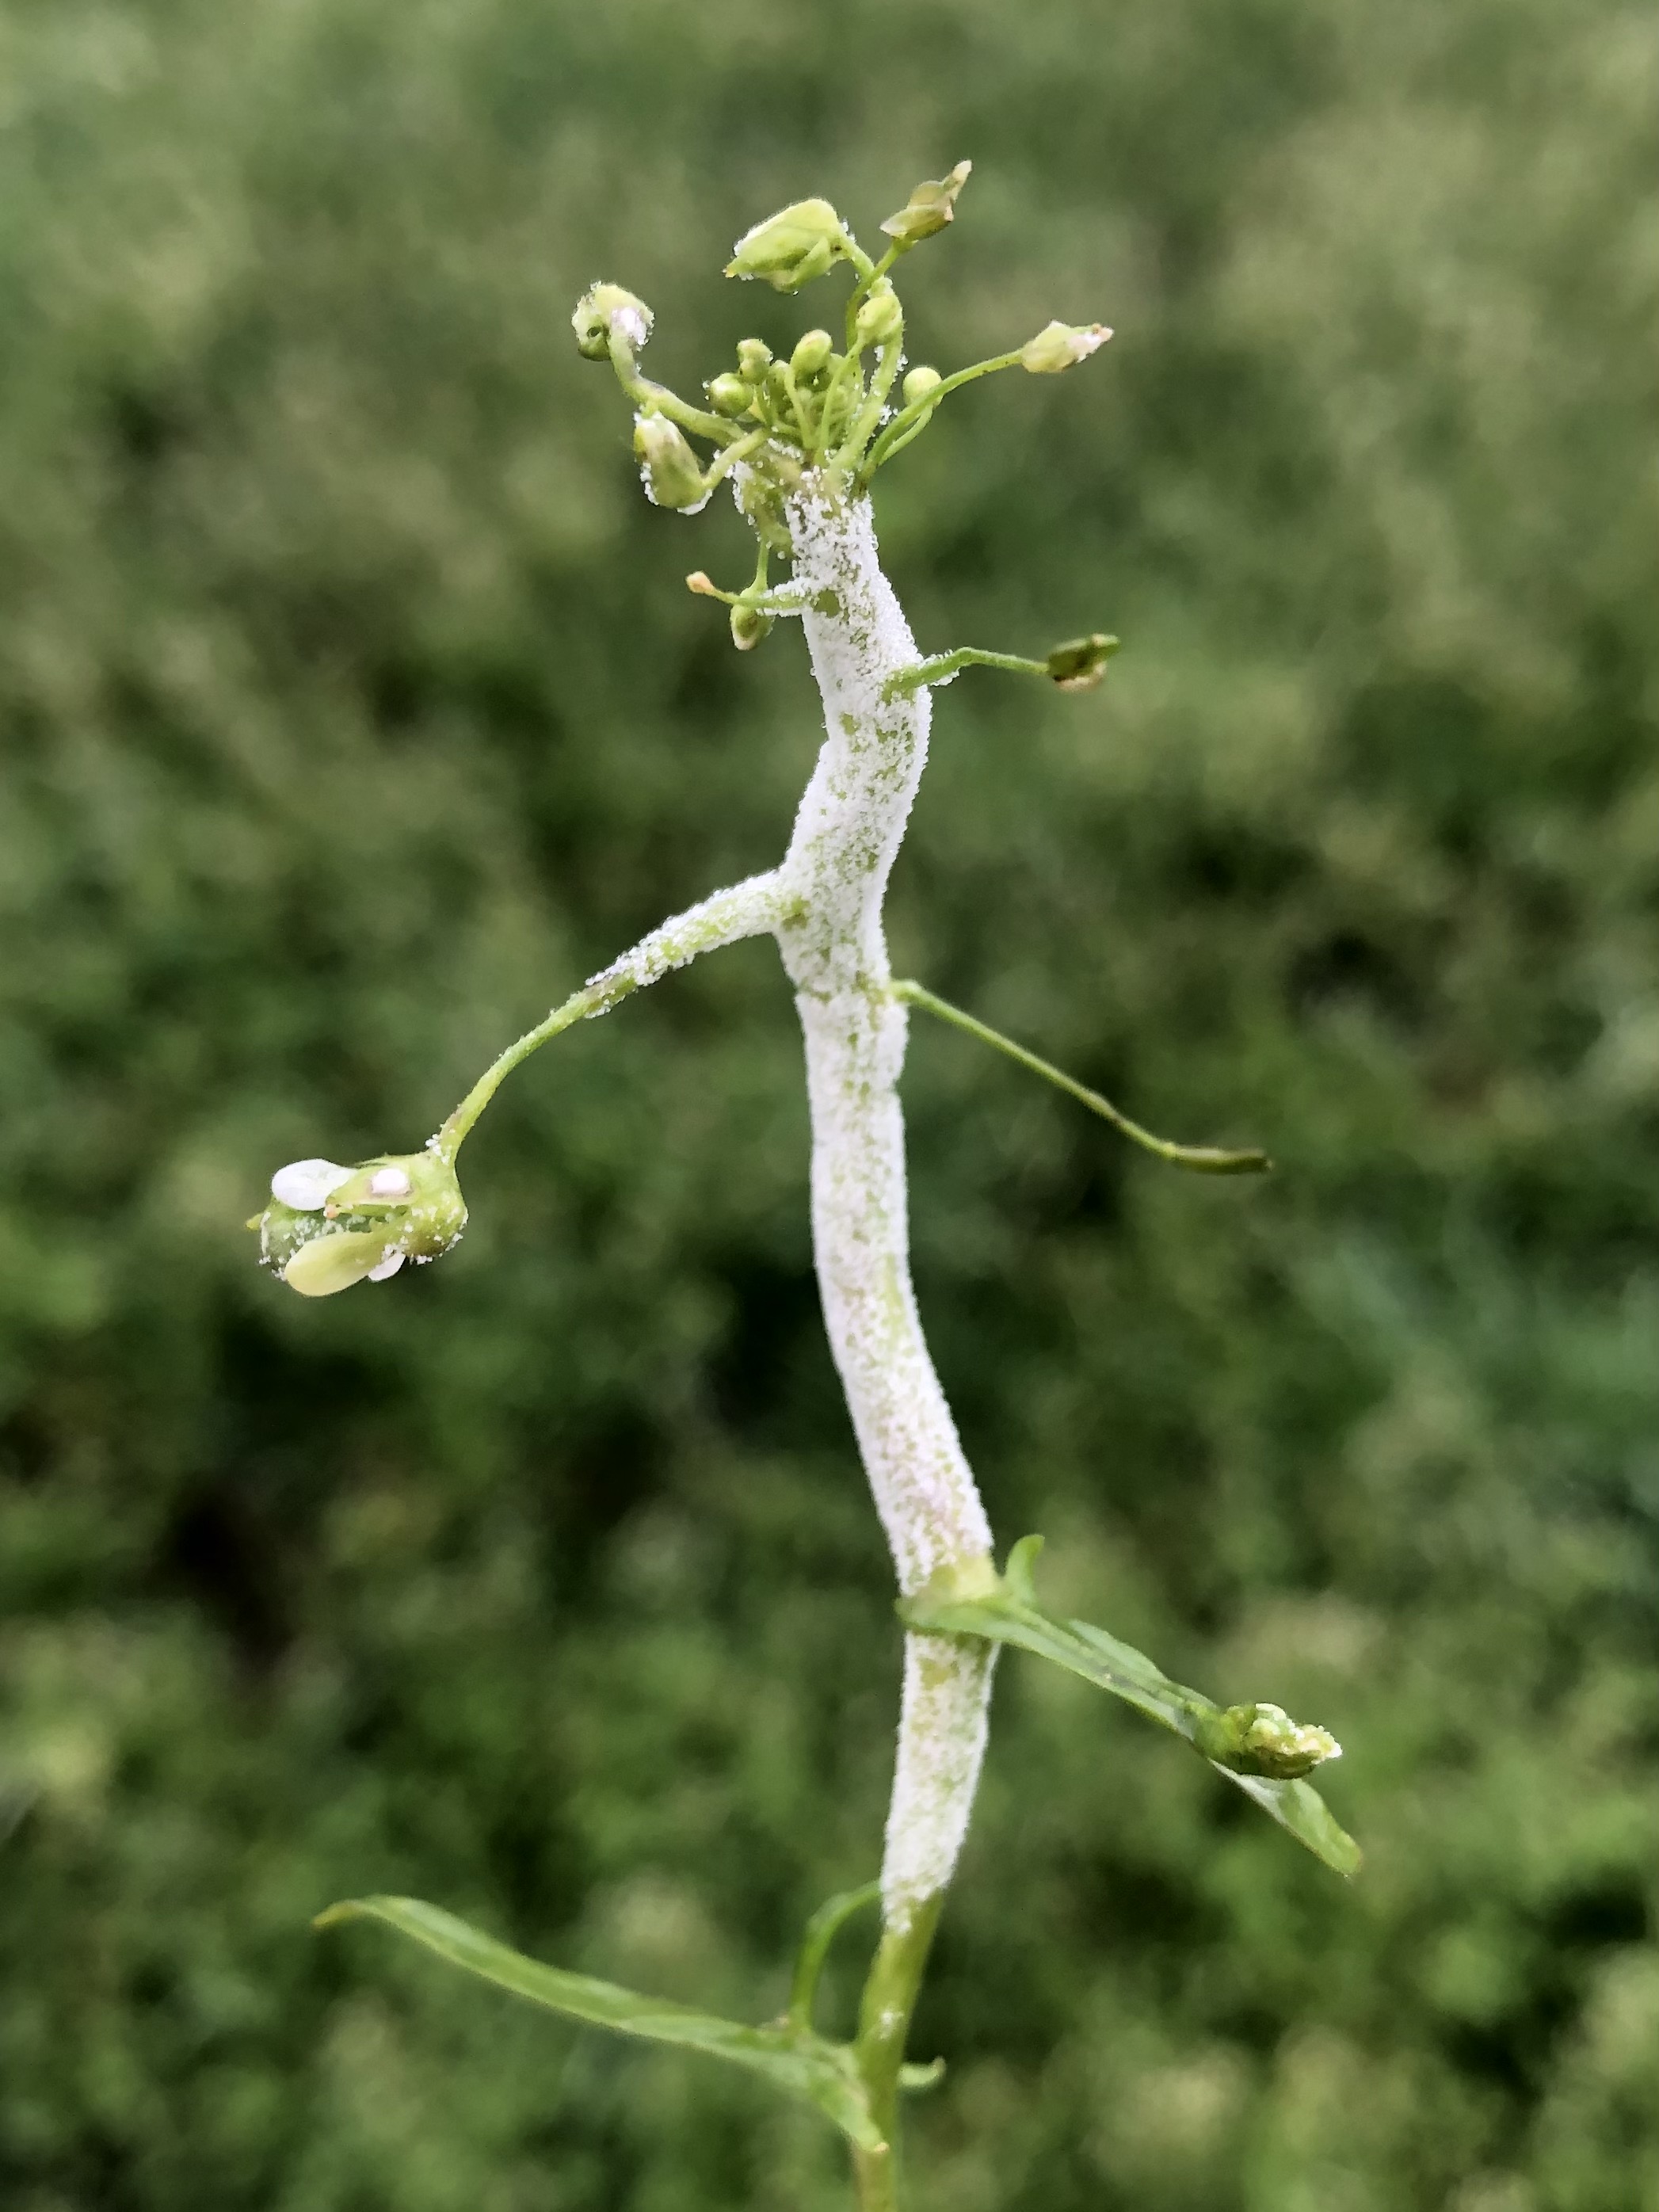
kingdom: Chromista
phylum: Oomycota
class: Peronosporea
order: Albuginales
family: Albuginaceae
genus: Albugo
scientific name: Albugo candida
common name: Crucifer white blister
